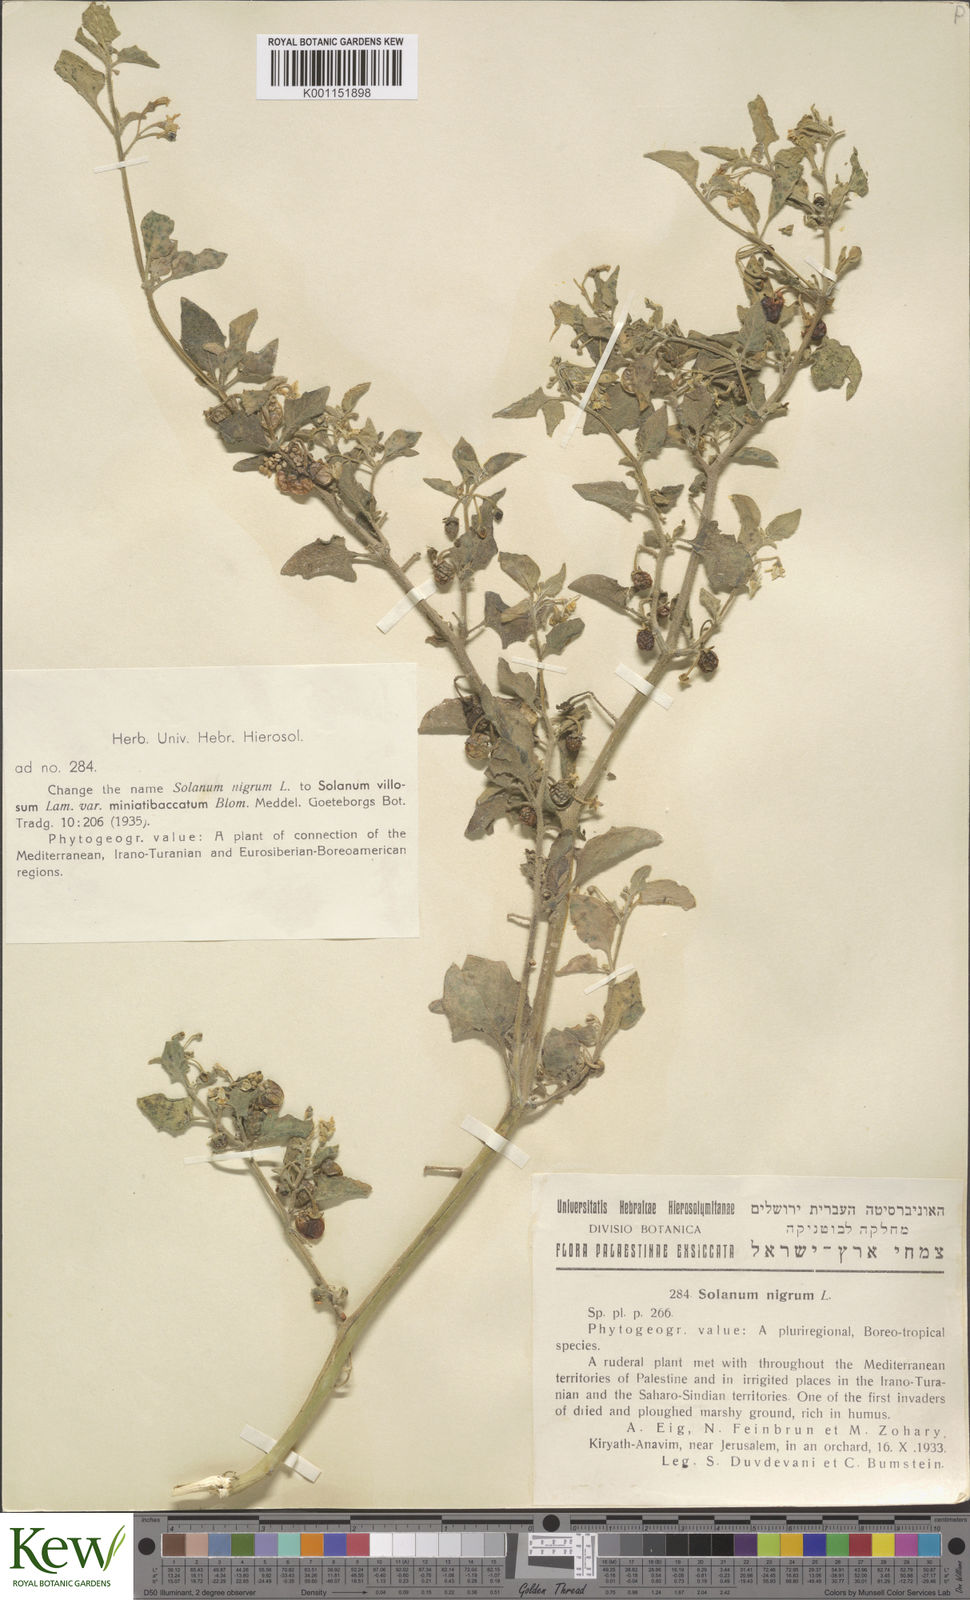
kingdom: Plantae
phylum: Tracheophyta
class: Magnoliopsida
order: Solanales
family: Solanaceae
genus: Solanum
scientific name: Solanum
